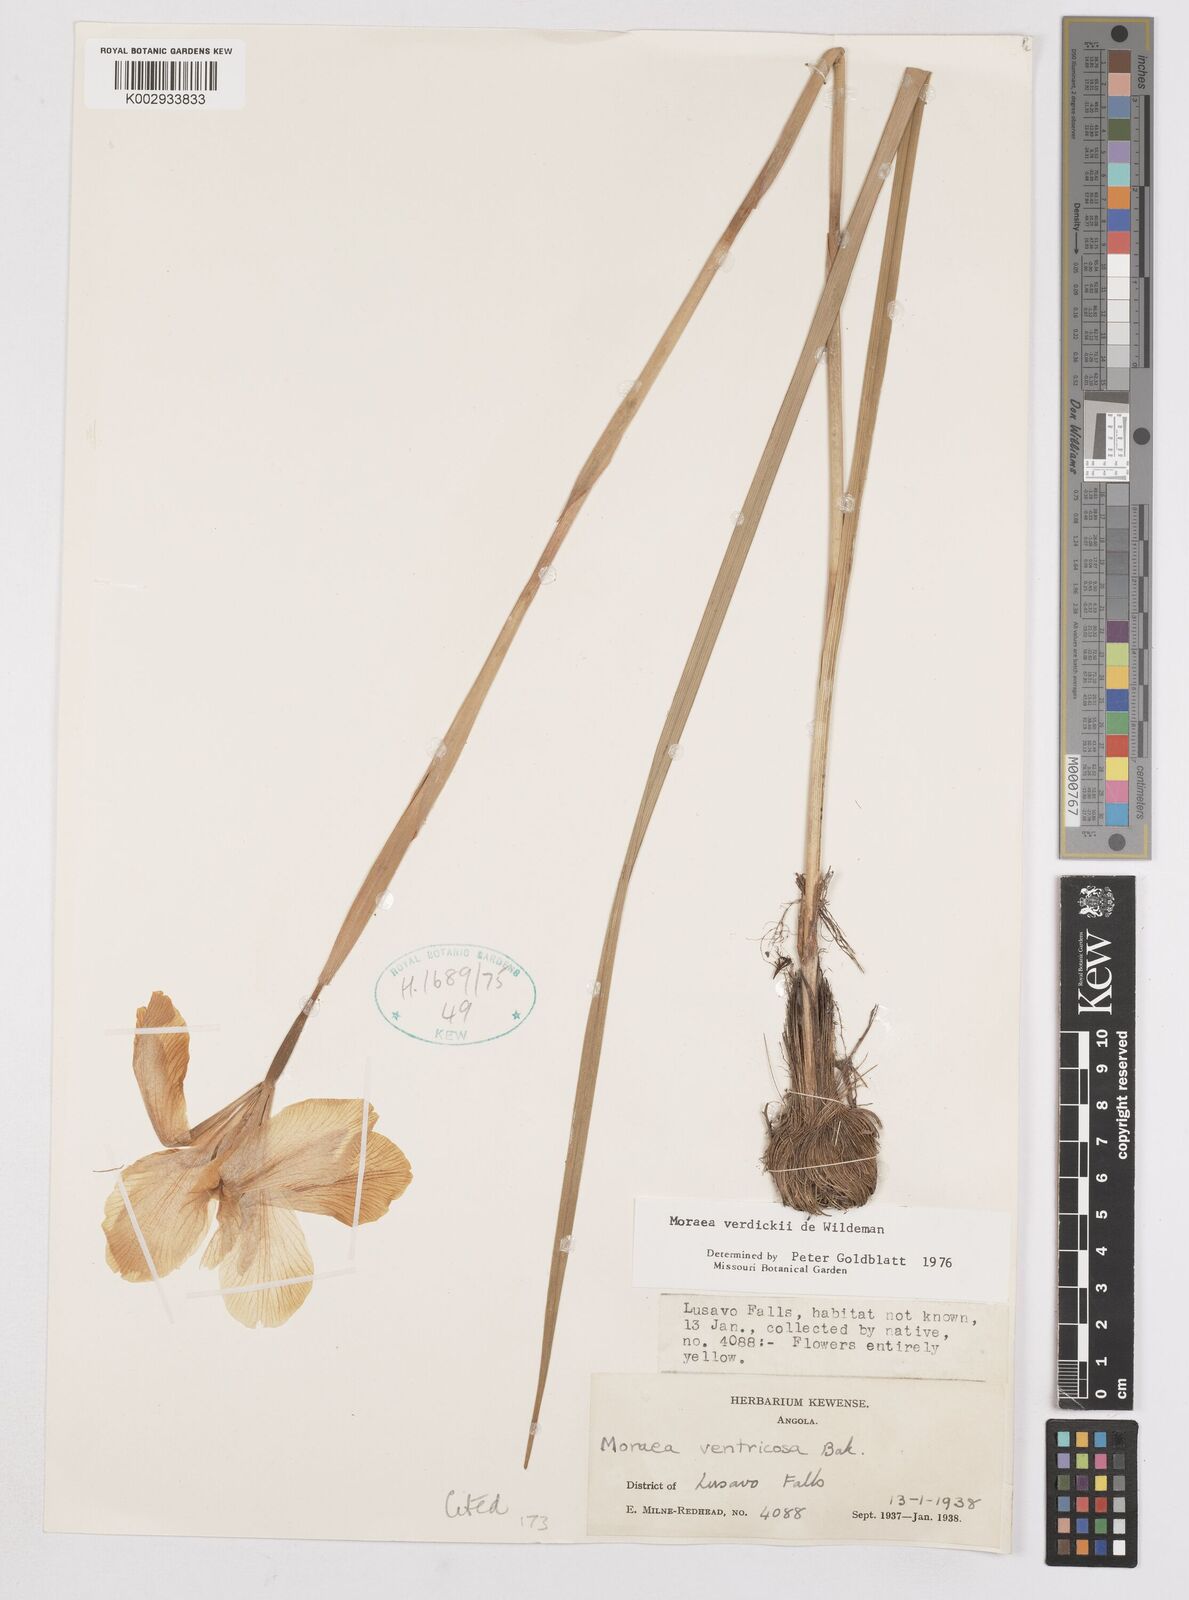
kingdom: Plantae
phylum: Tracheophyta
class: Liliopsida
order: Asparagales
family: Iridaceae
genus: Moraea
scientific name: Moraea verdickii
